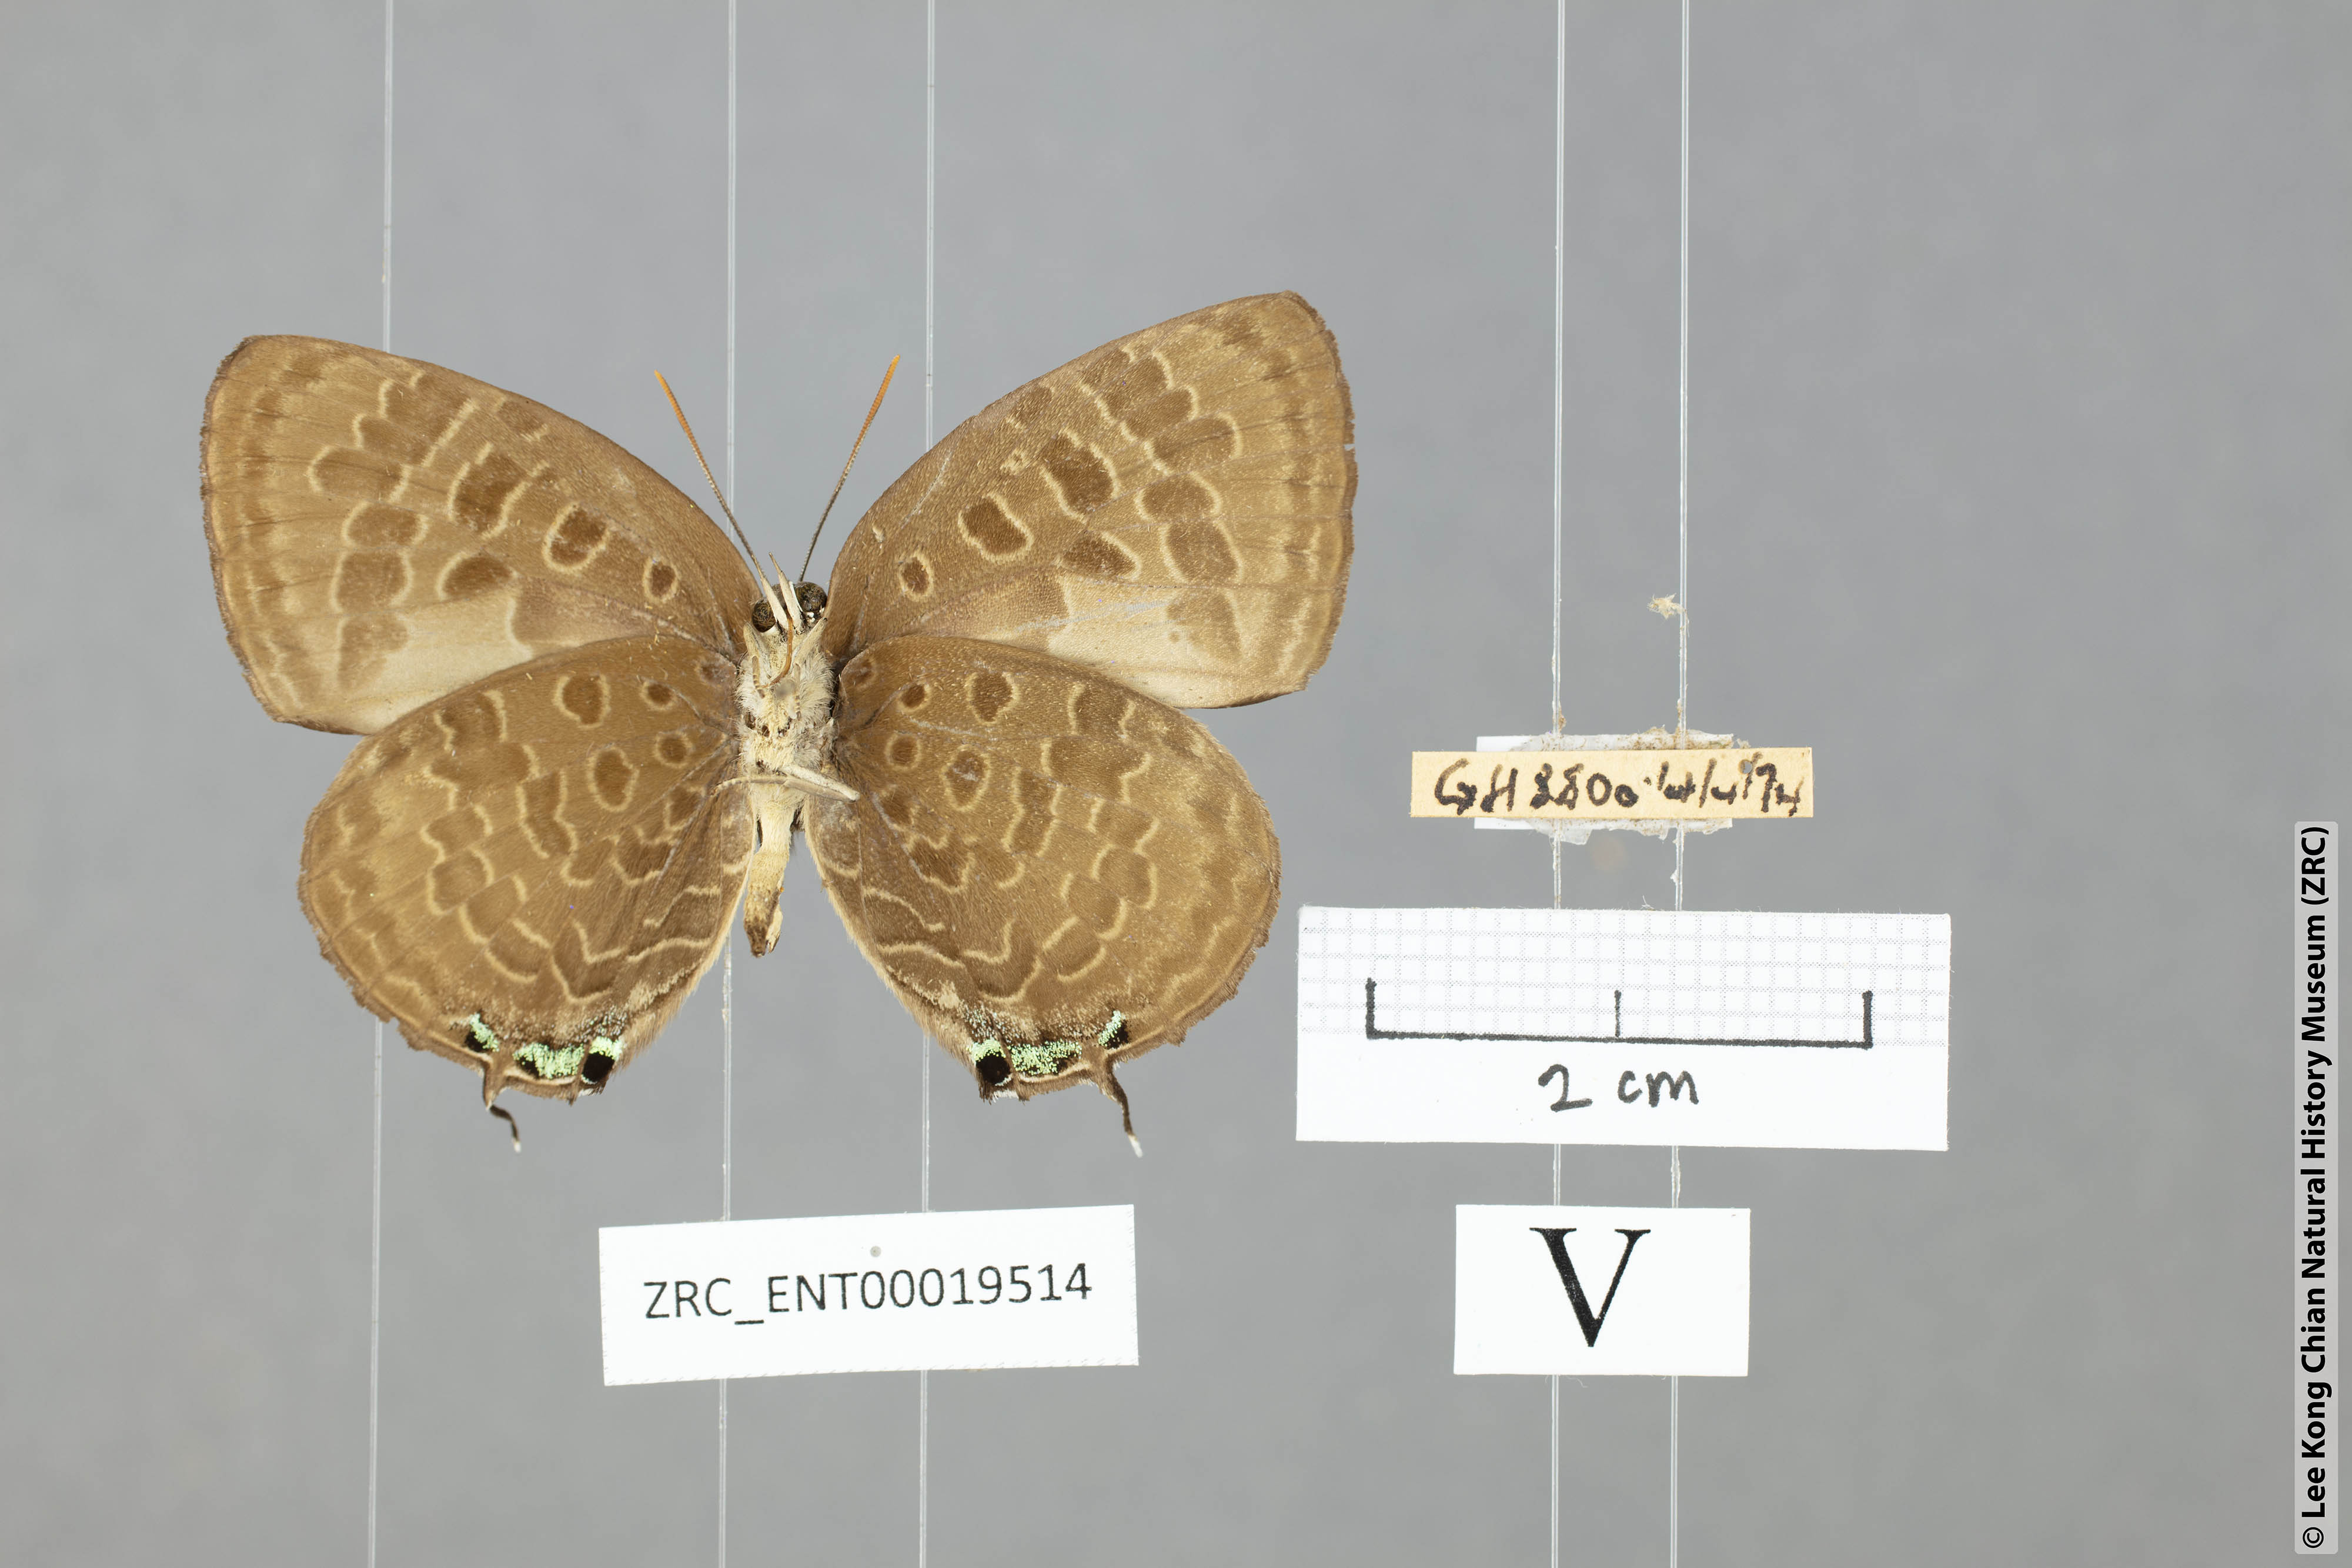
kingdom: Animalia
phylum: Arthropoda
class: Insecta
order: Lepidoptera
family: Lycaenidae
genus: Arhopala
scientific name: Arhopala hellenore
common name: Doherty's green oakblue
